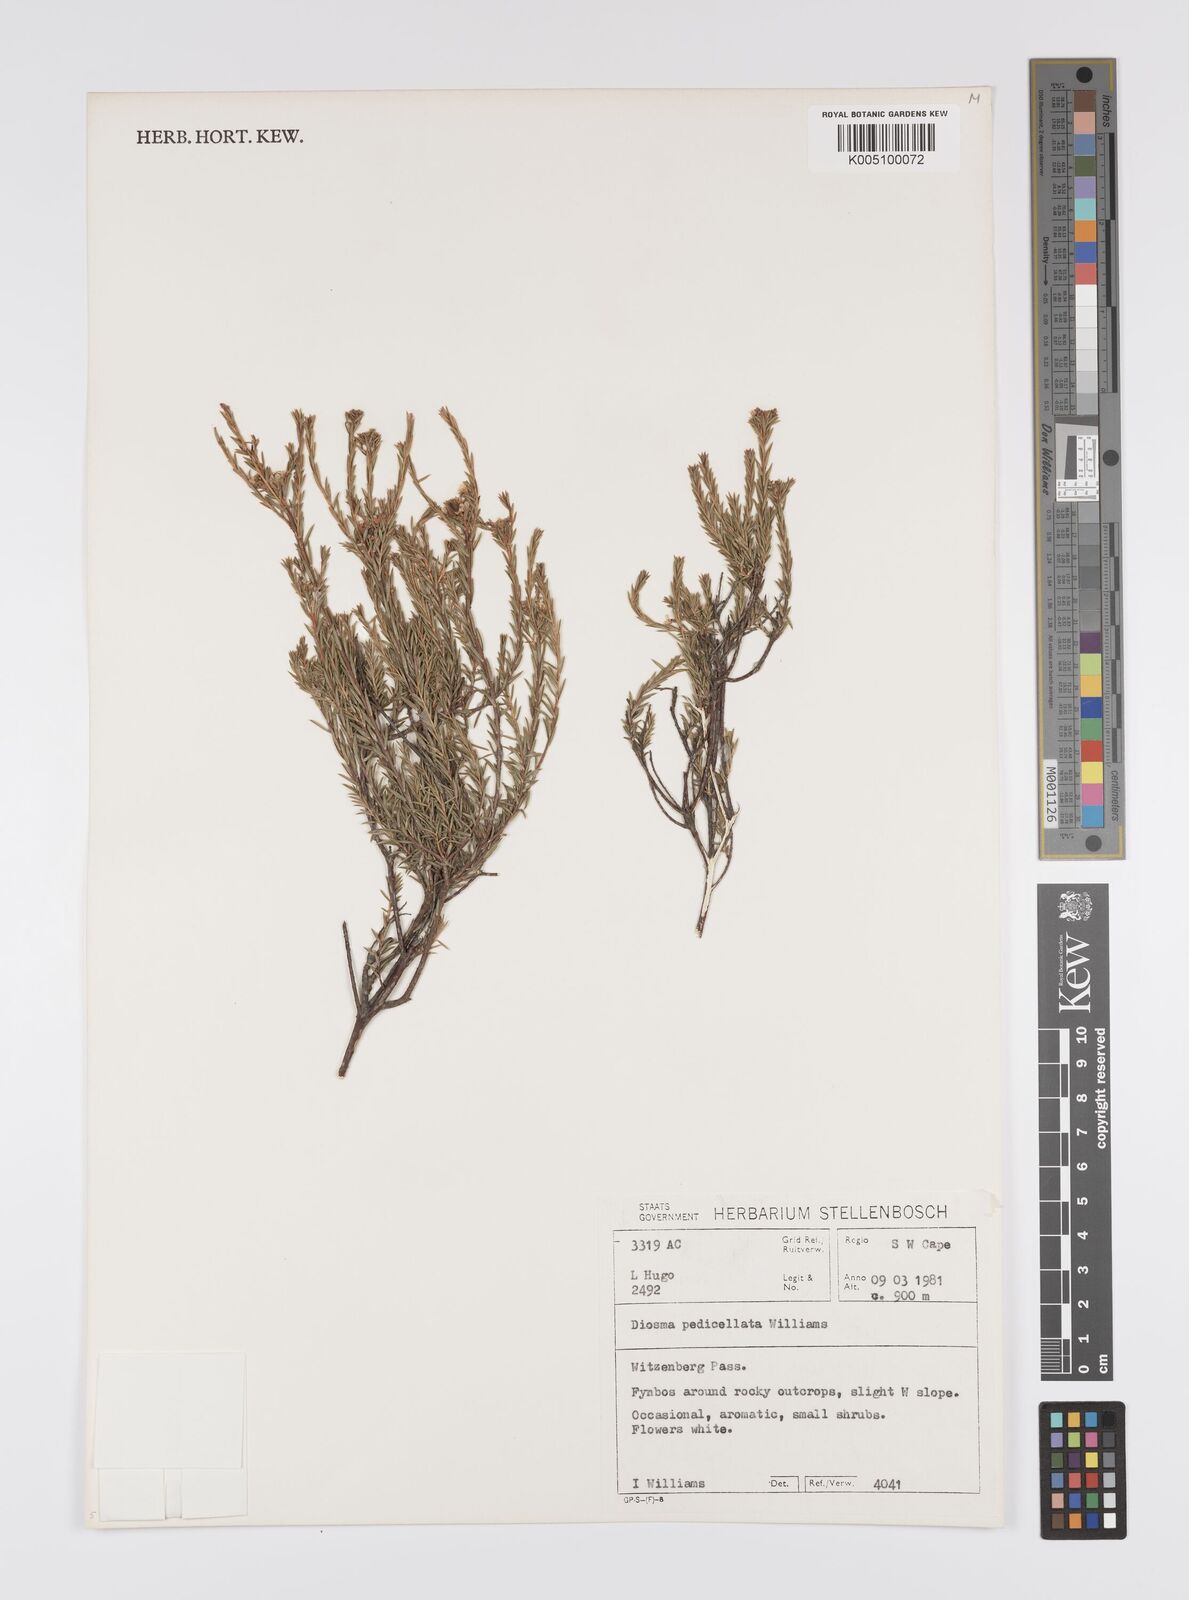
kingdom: Plantae
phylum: Tracheophyta
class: Magnoliopsida
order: Sapindales
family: Rutaceae
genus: Diosma
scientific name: Diosma pedicellata
